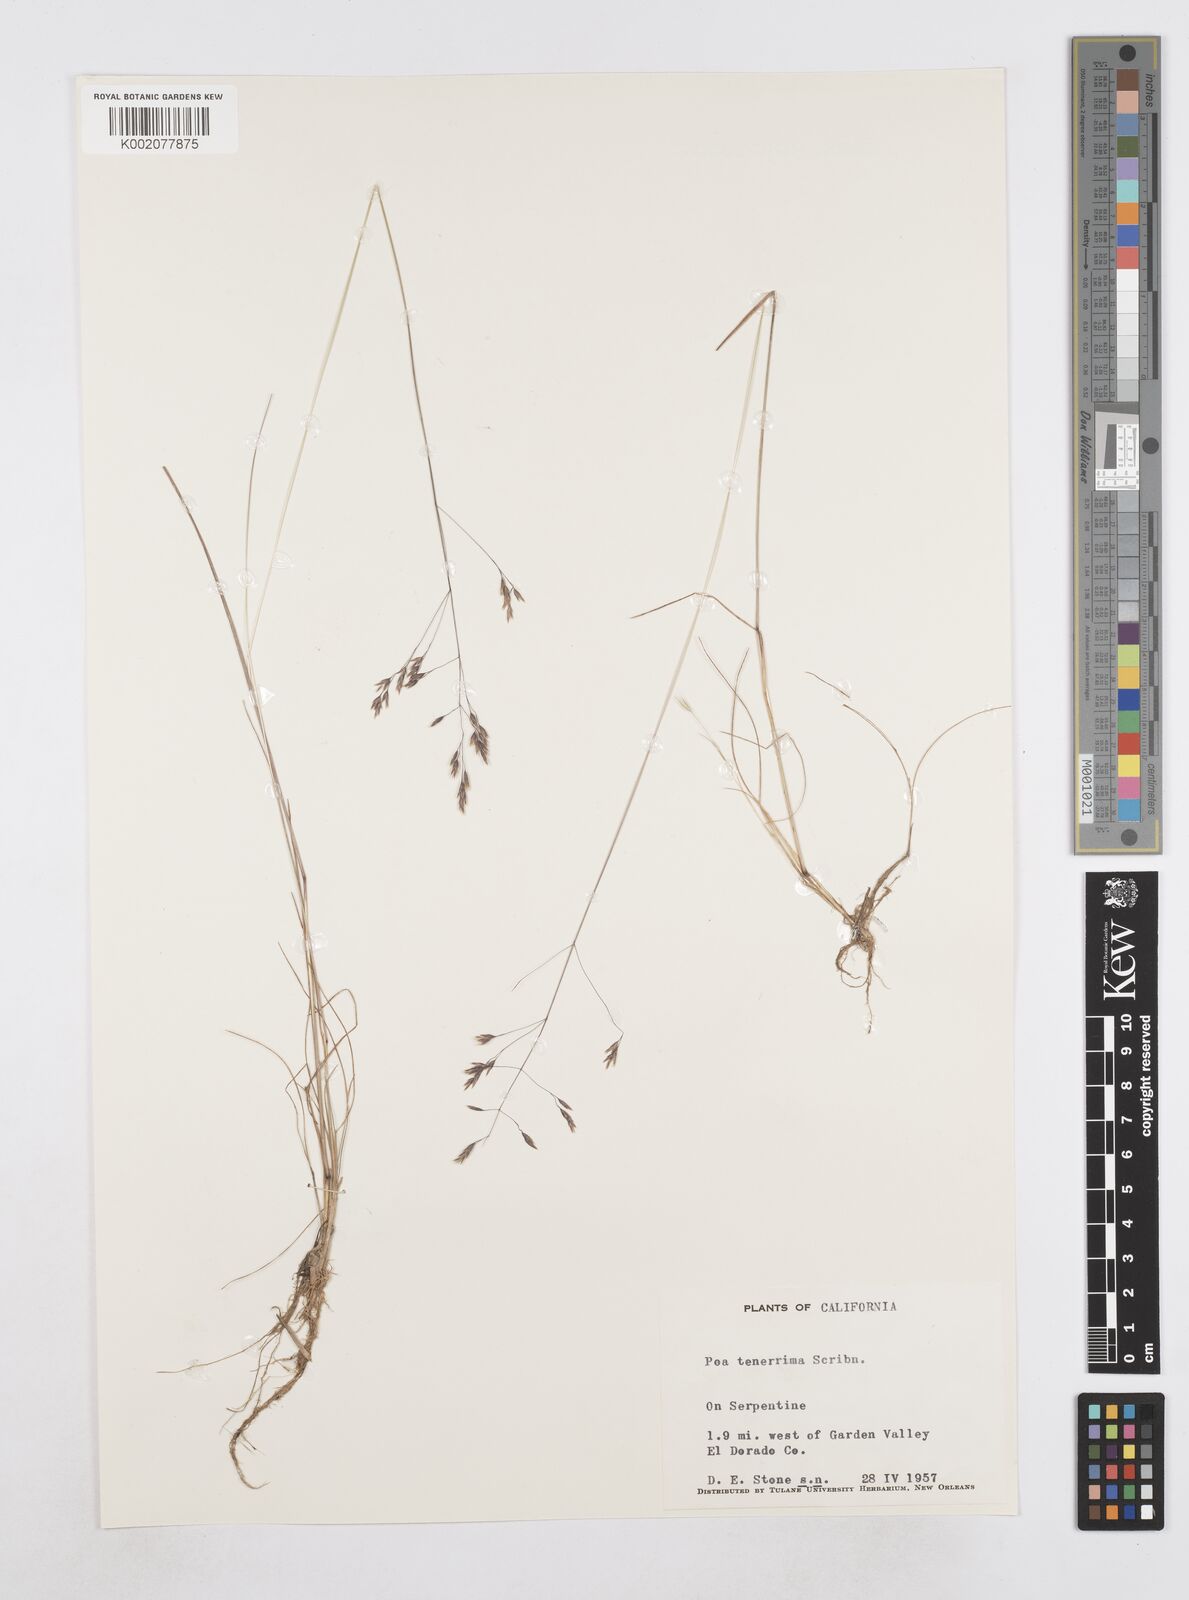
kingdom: Plantae
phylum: Tracheophyta
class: Liliopsida
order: Poales
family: Poaceae
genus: Poa
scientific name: Poa tenerrima
